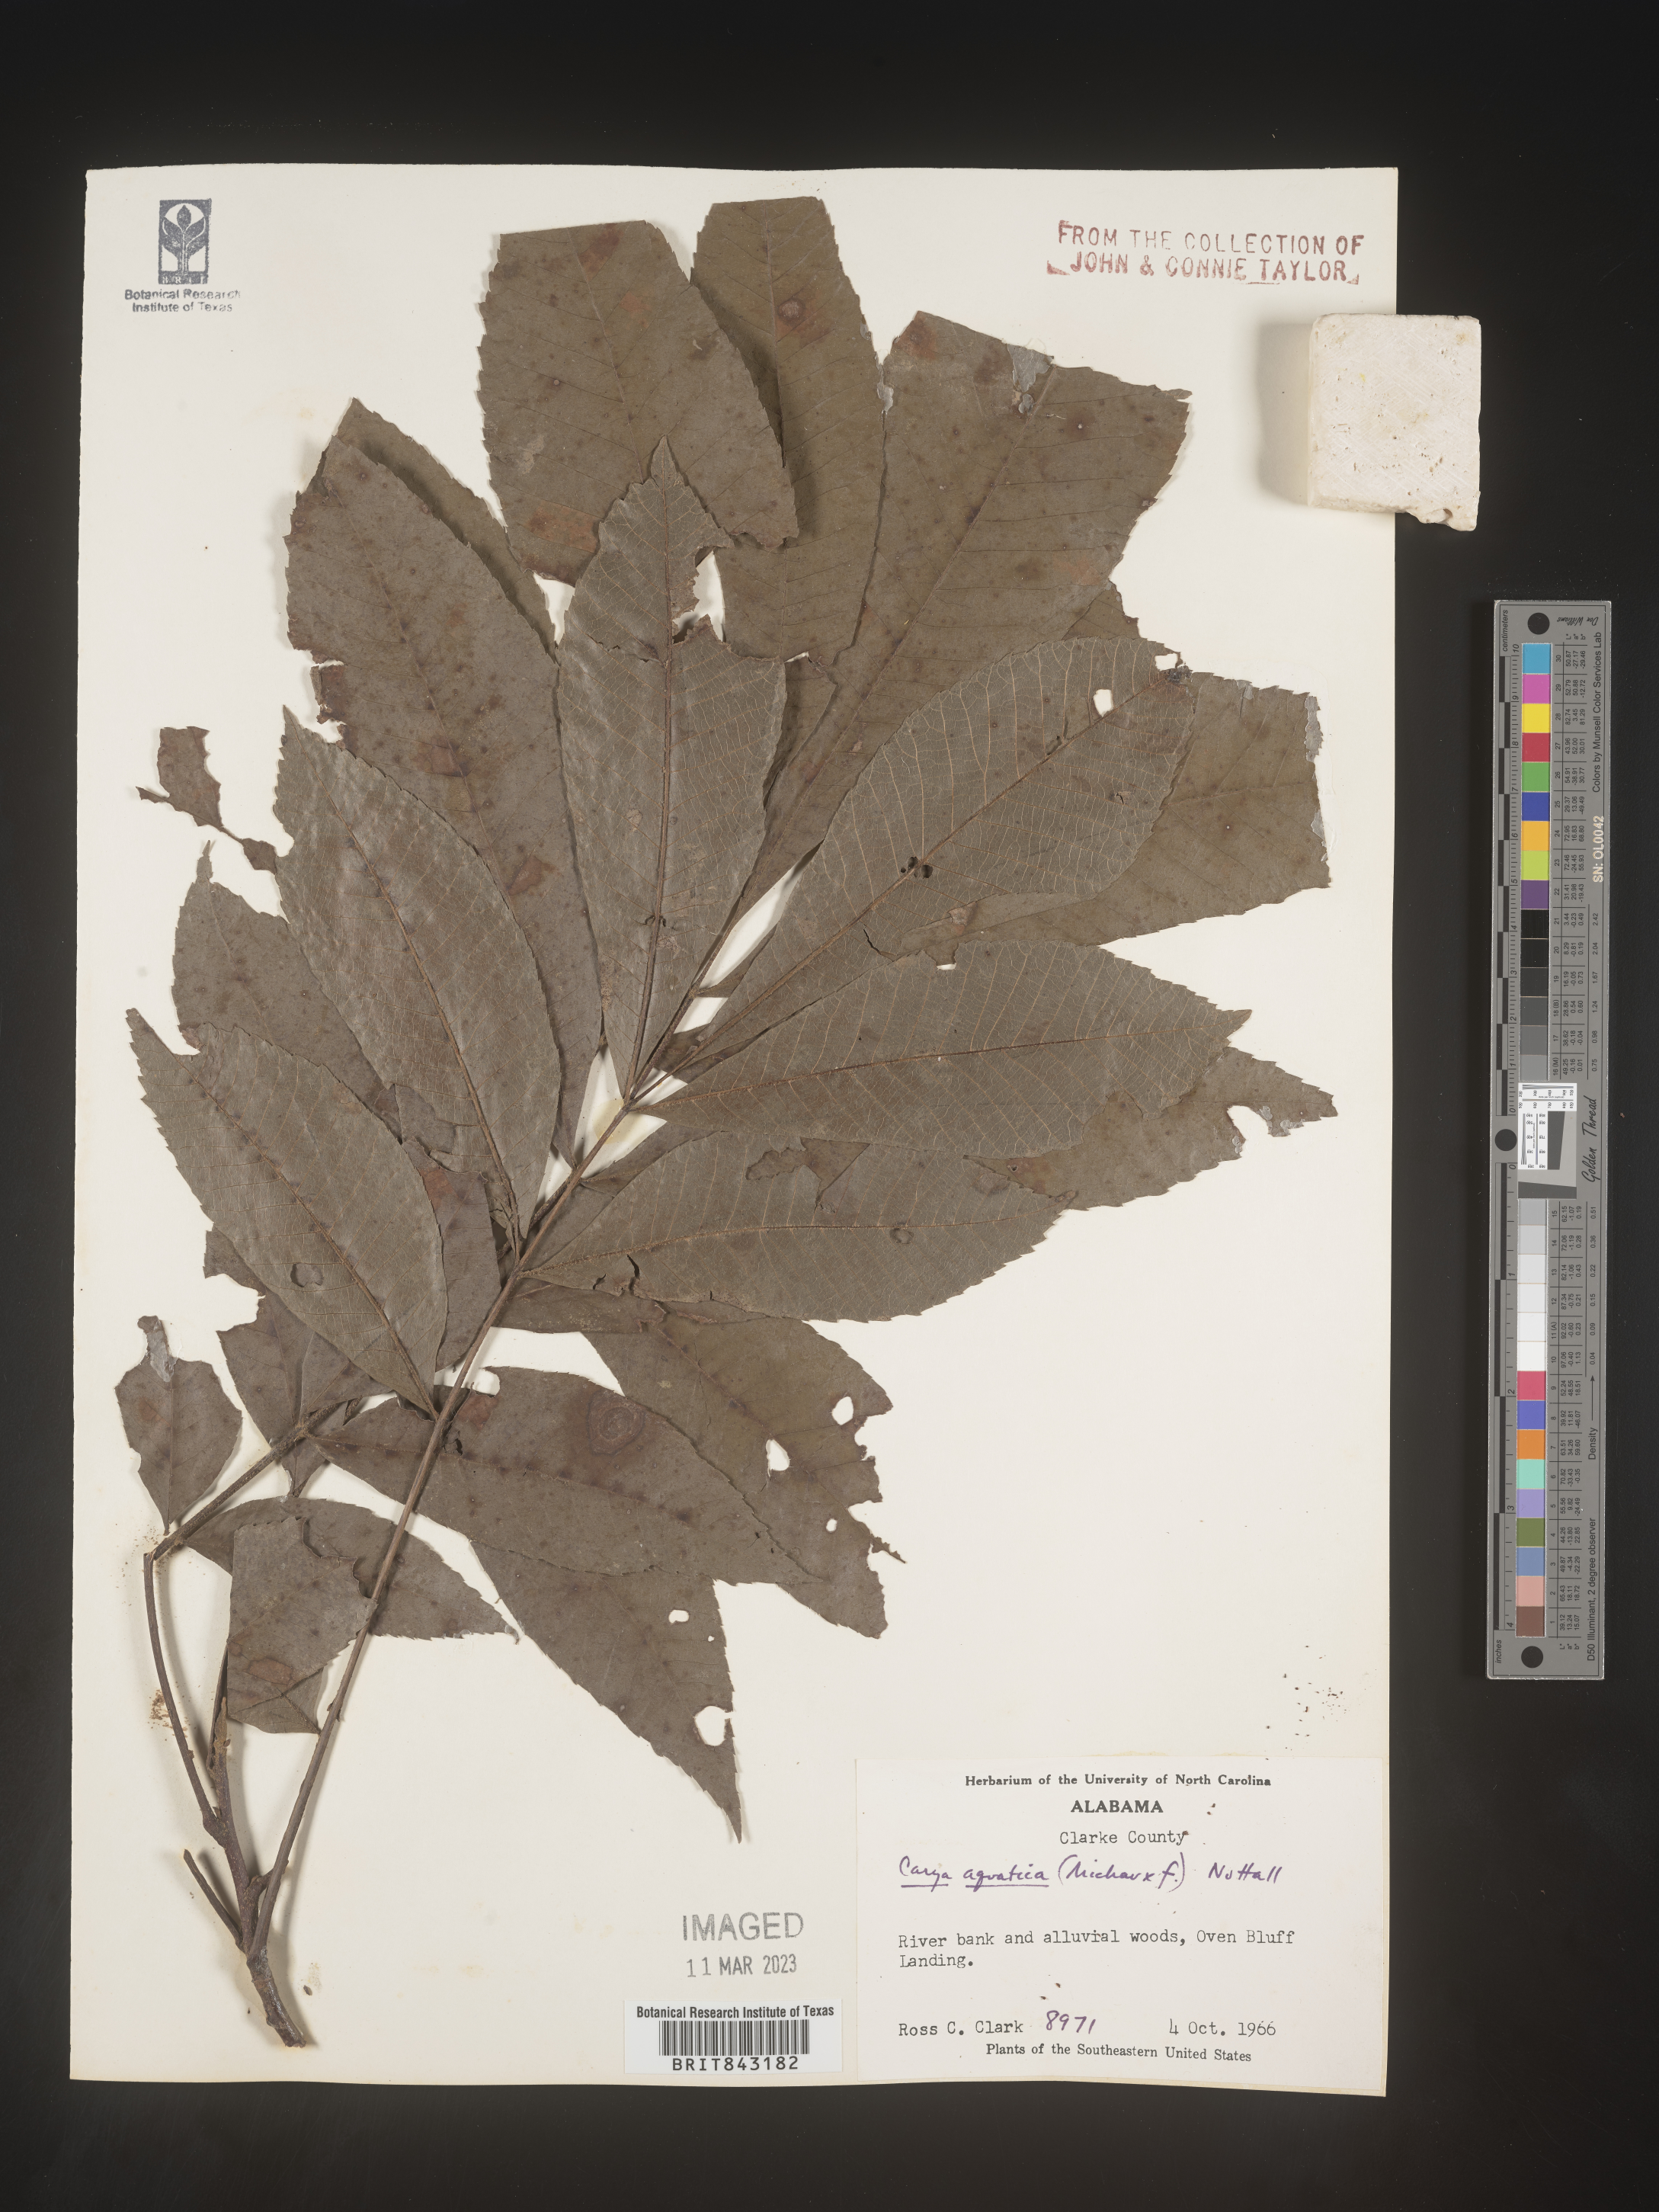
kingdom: Plantae
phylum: Tracheophyta
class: Magnoliopsida
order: Fagales
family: Juglandaceae
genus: Carya
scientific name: Carya aquatica
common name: Water hickory
